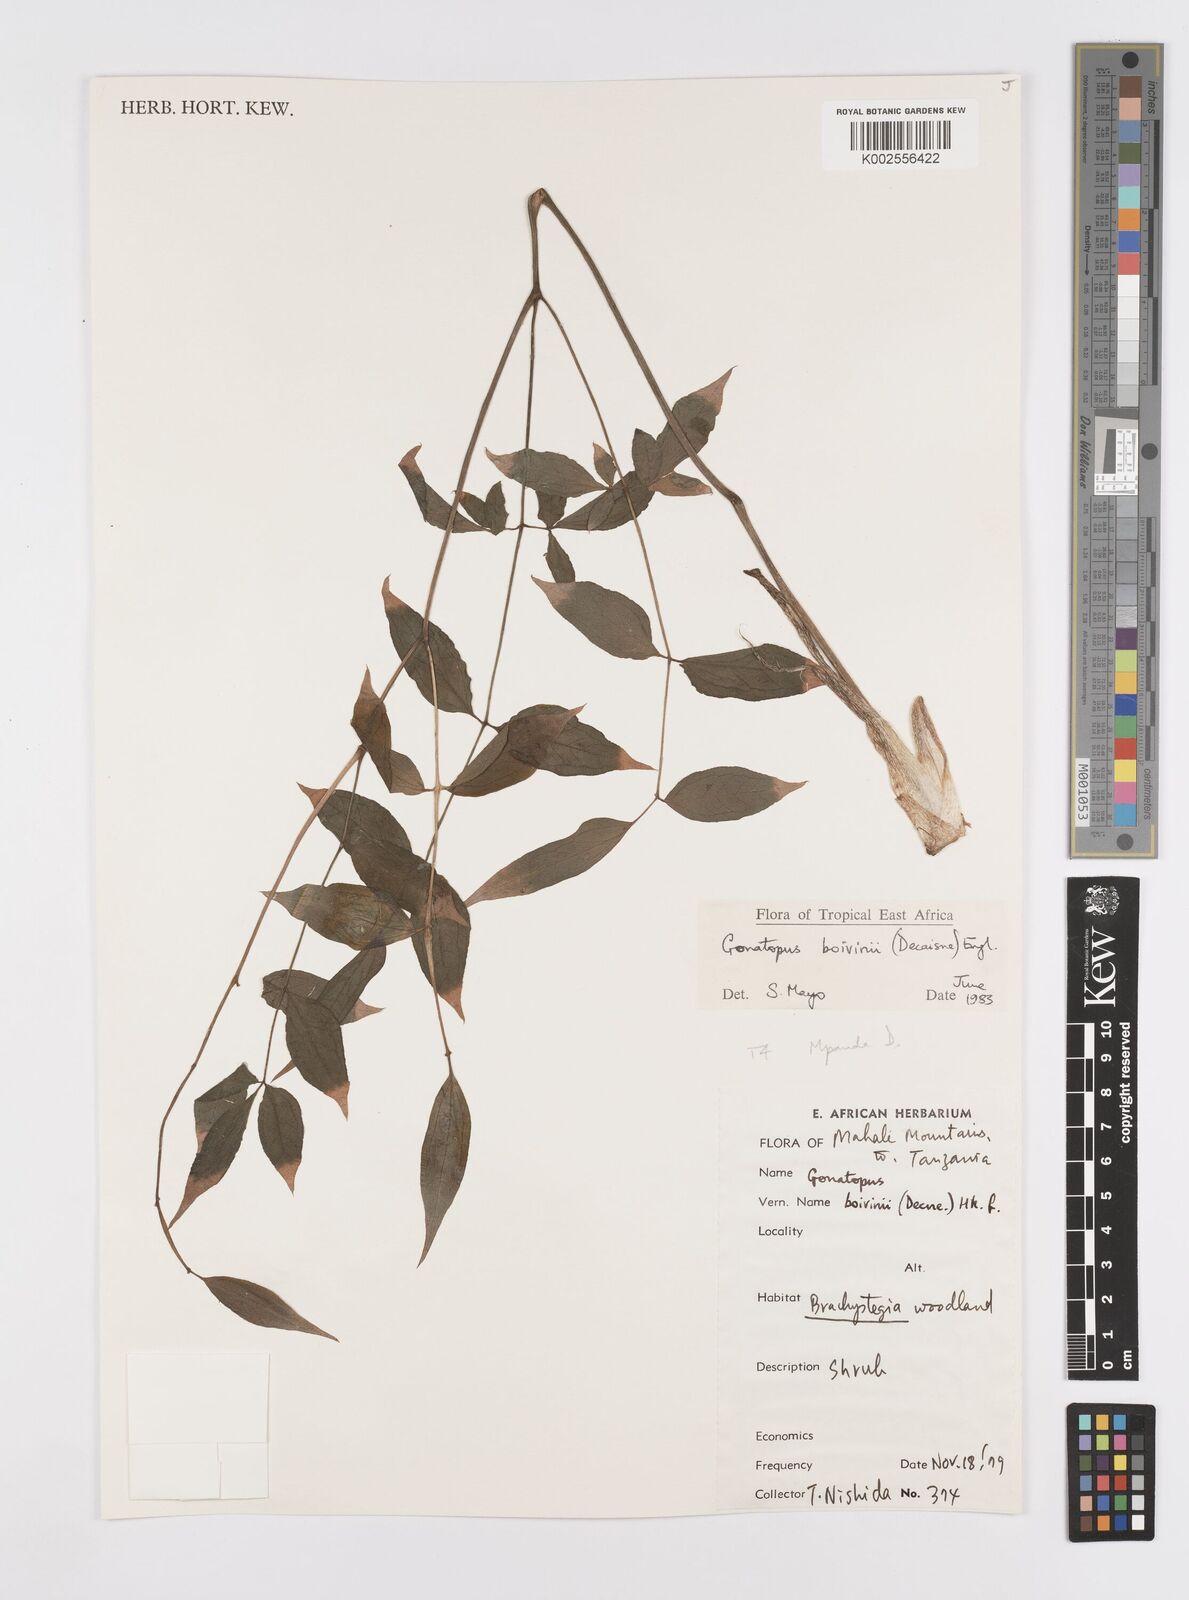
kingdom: Plantae
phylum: Tracheophyta
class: Liliopsida
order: Alismatales
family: Araceae
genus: Gonatopus
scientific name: Gonatopus boivinii
